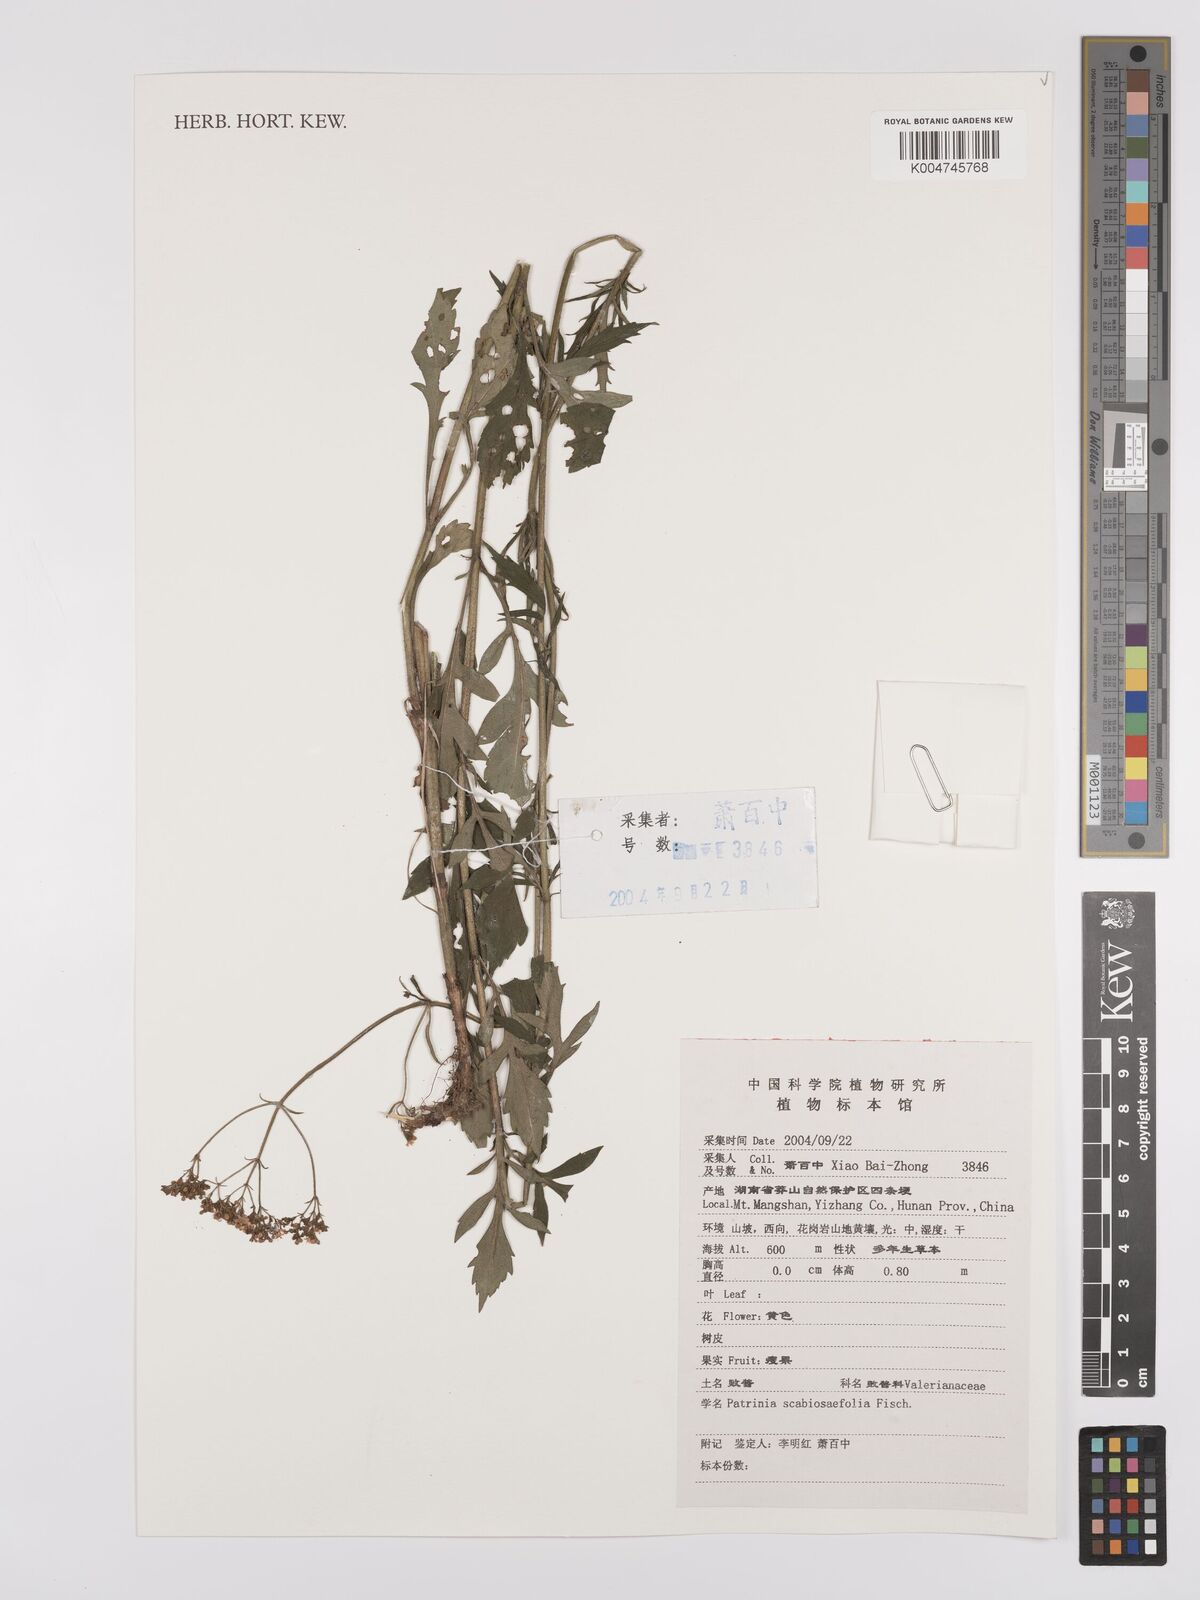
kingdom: Plantae
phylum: Tracheophyta
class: Magnoliopsida
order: Dipsacales
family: Caprifoliaceae
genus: Patrinia
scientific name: Patrinia
